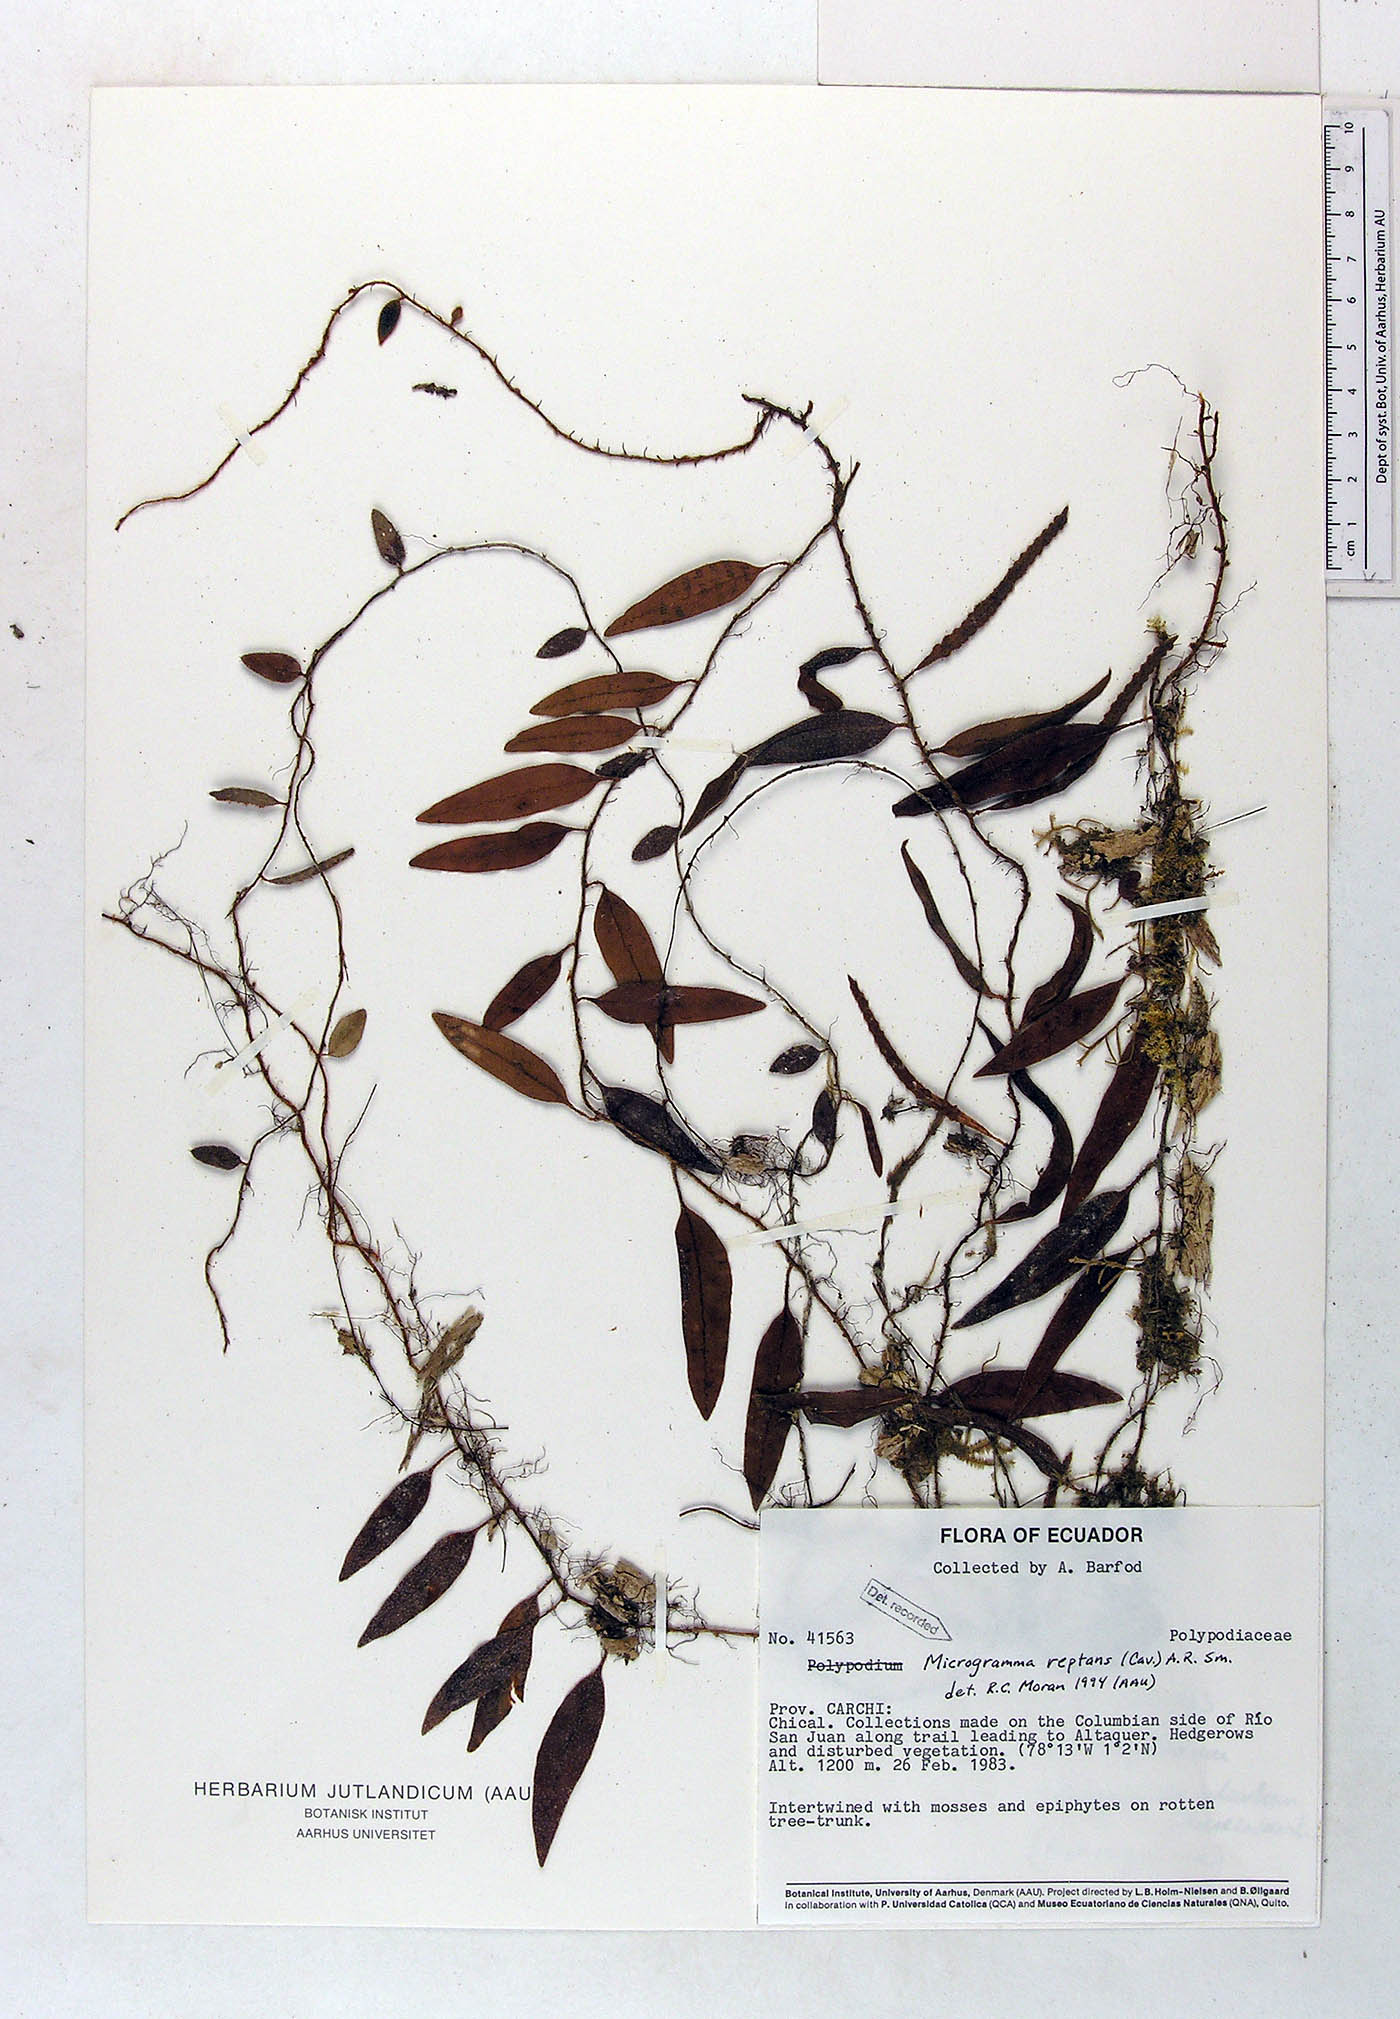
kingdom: Plantae
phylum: Tracheophyta
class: Polypodiopsida
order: Polypodiales
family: Polypodiaceae
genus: Microgramma
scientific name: Microgramma reptans
